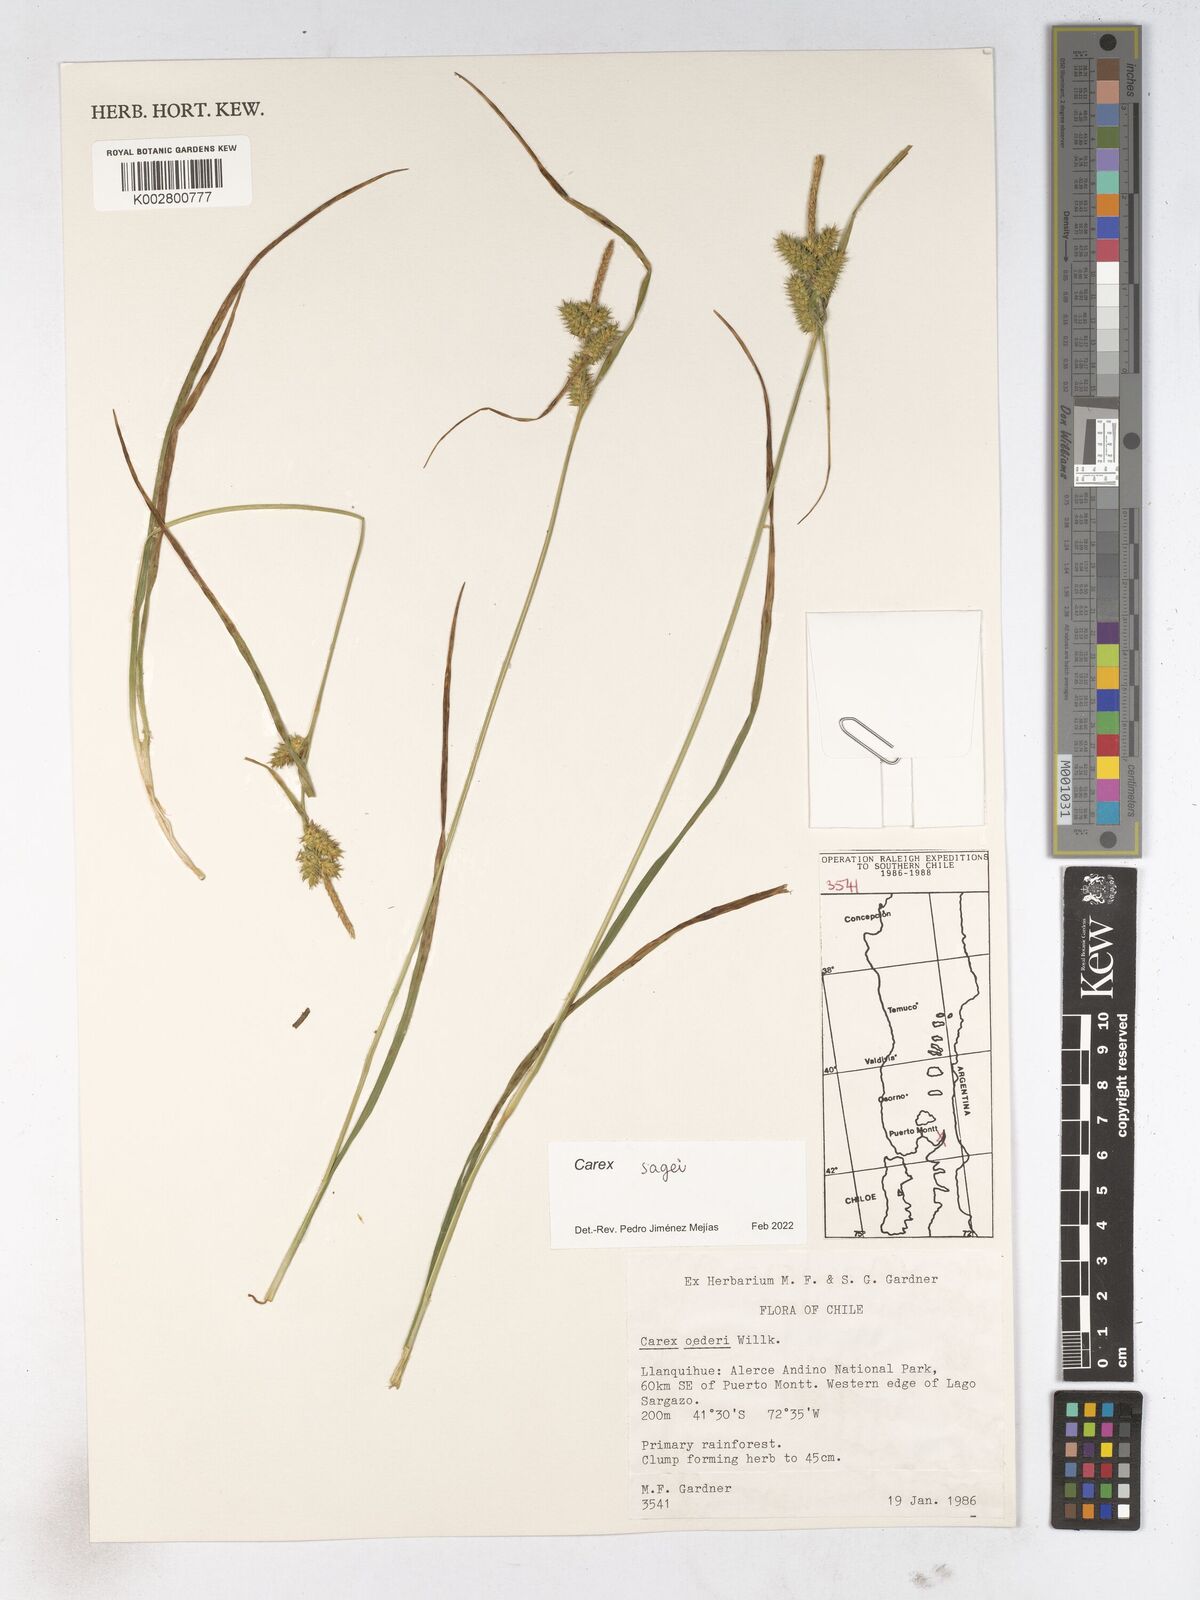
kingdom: Plantae
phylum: Tracheophyta
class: Liliopsida
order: Poales
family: Cyperaceae
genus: Carex
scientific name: Carex
